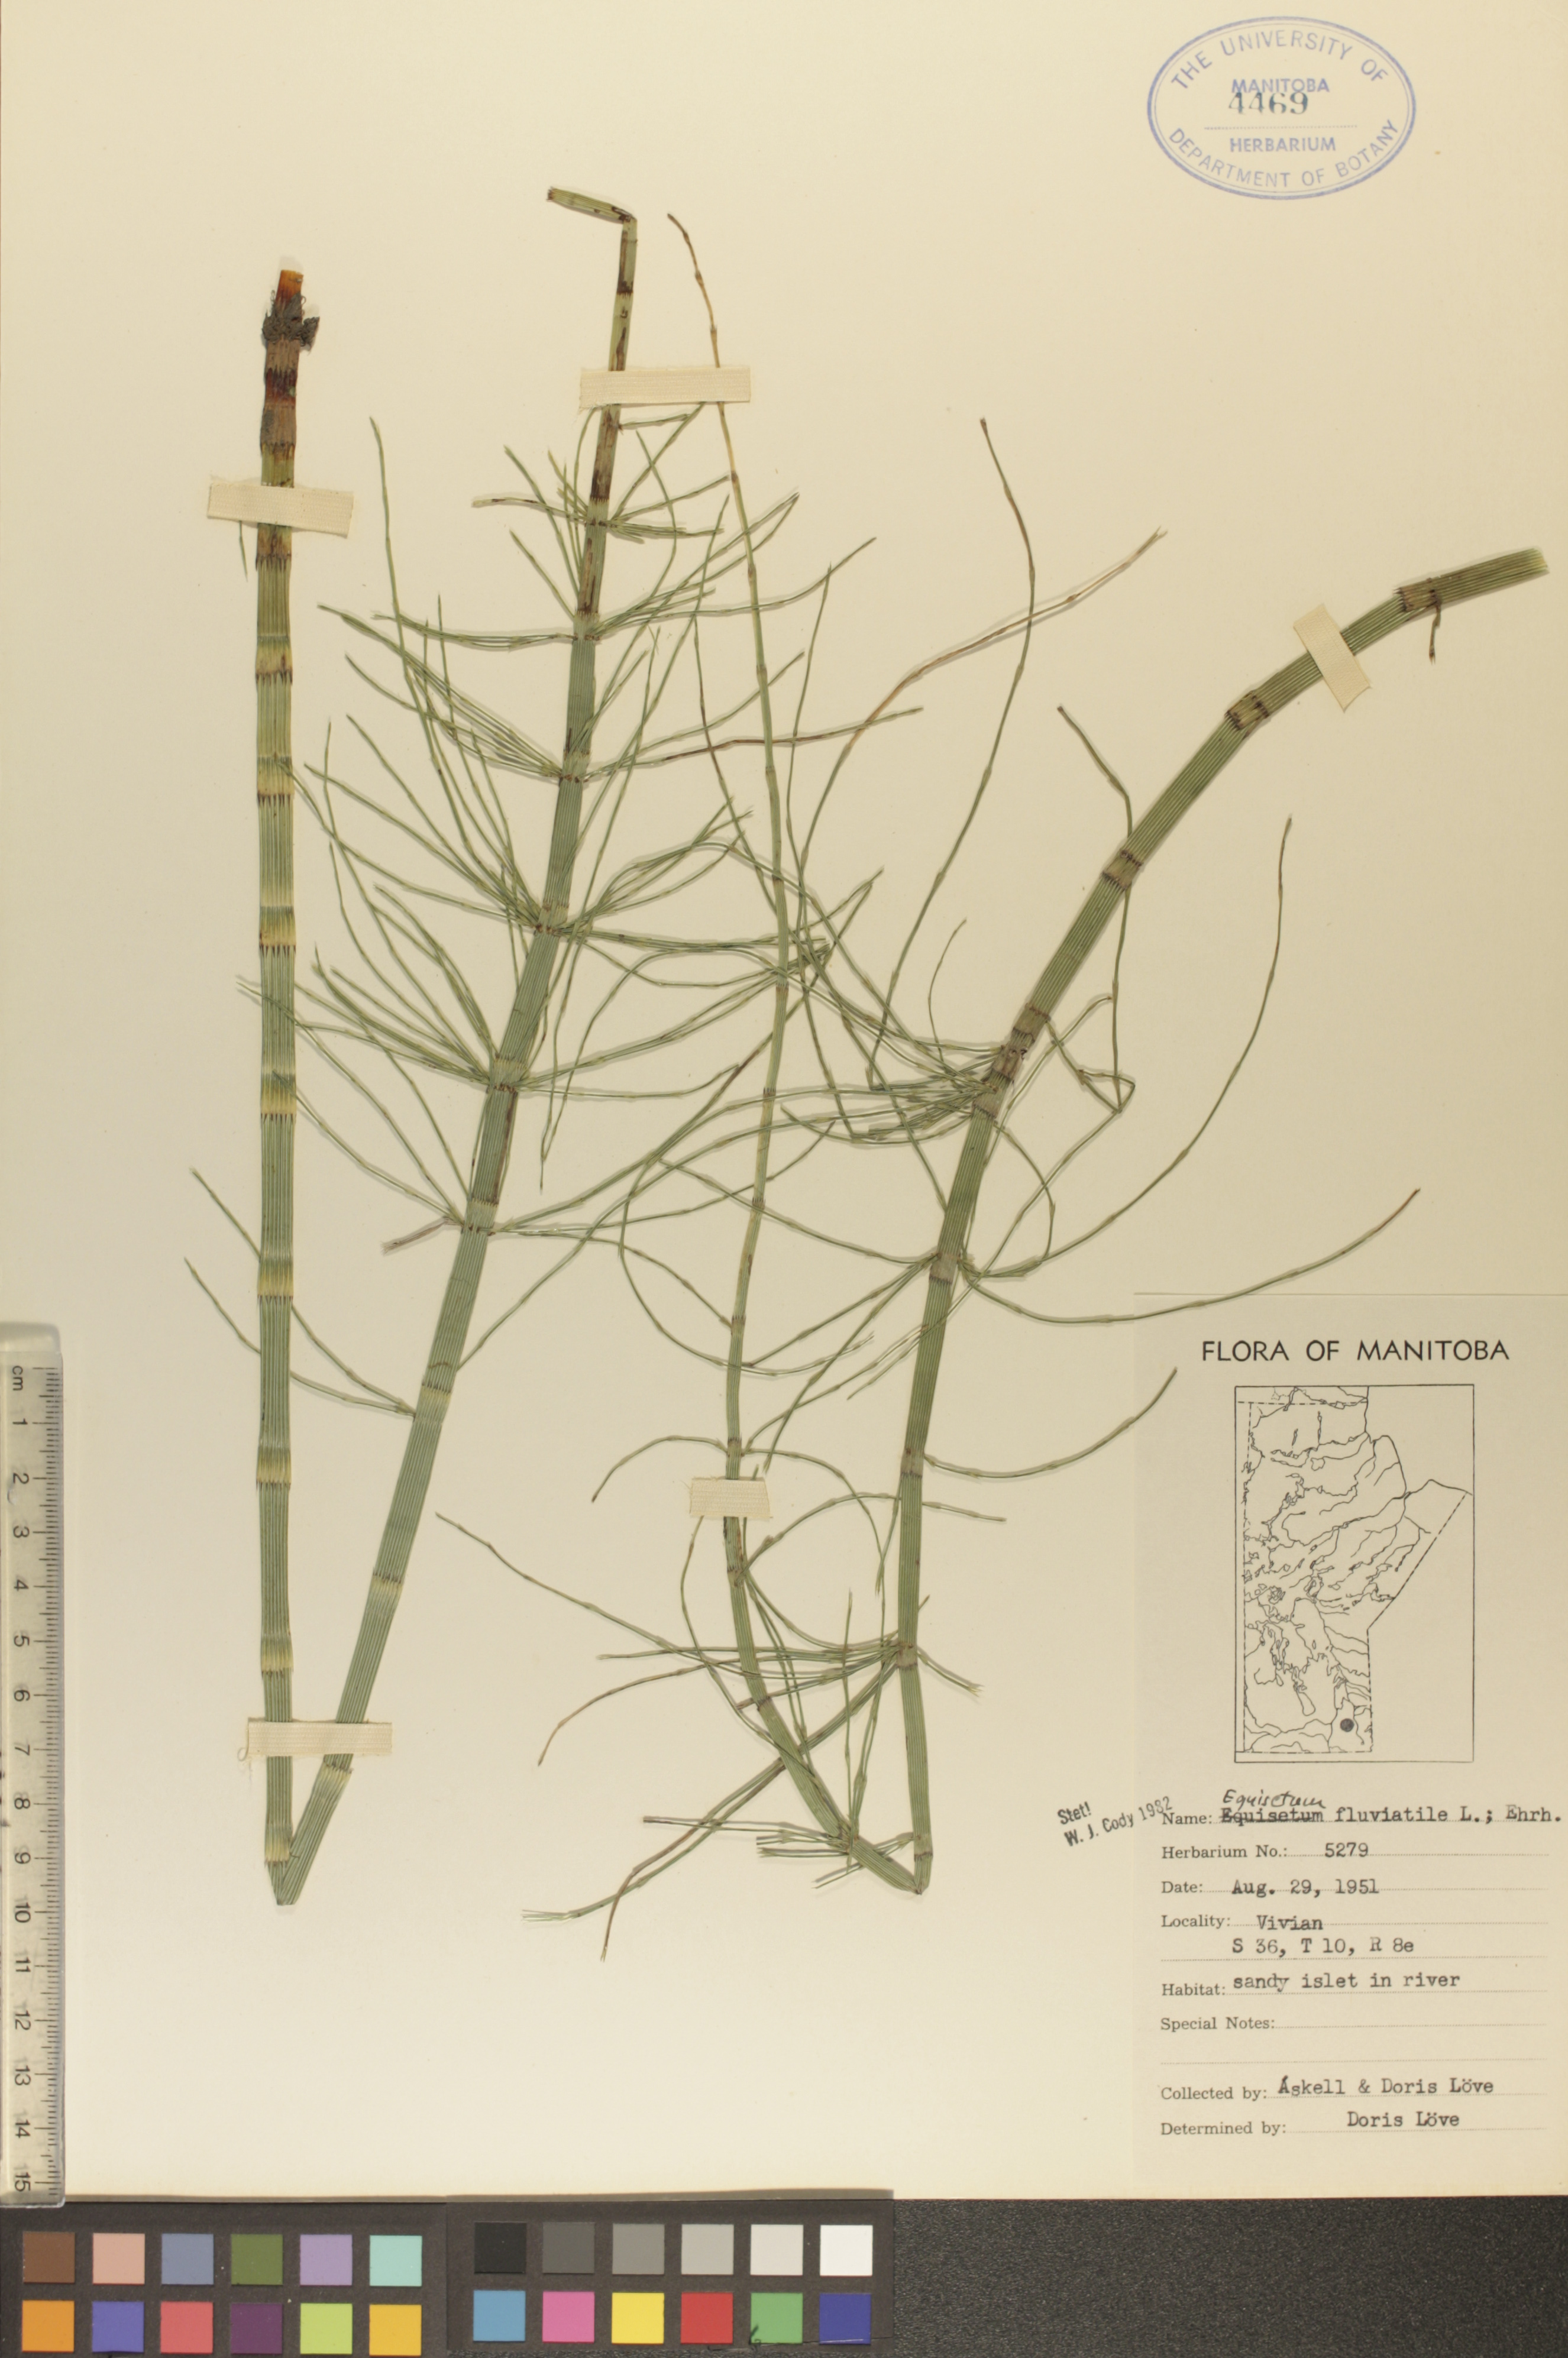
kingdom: Plantae
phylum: Tracheophyta
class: Polypodiopsida
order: Equisetales
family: Equisetaceae
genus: Equisetum
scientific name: Equisetum fluviatile
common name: Water horsetail
